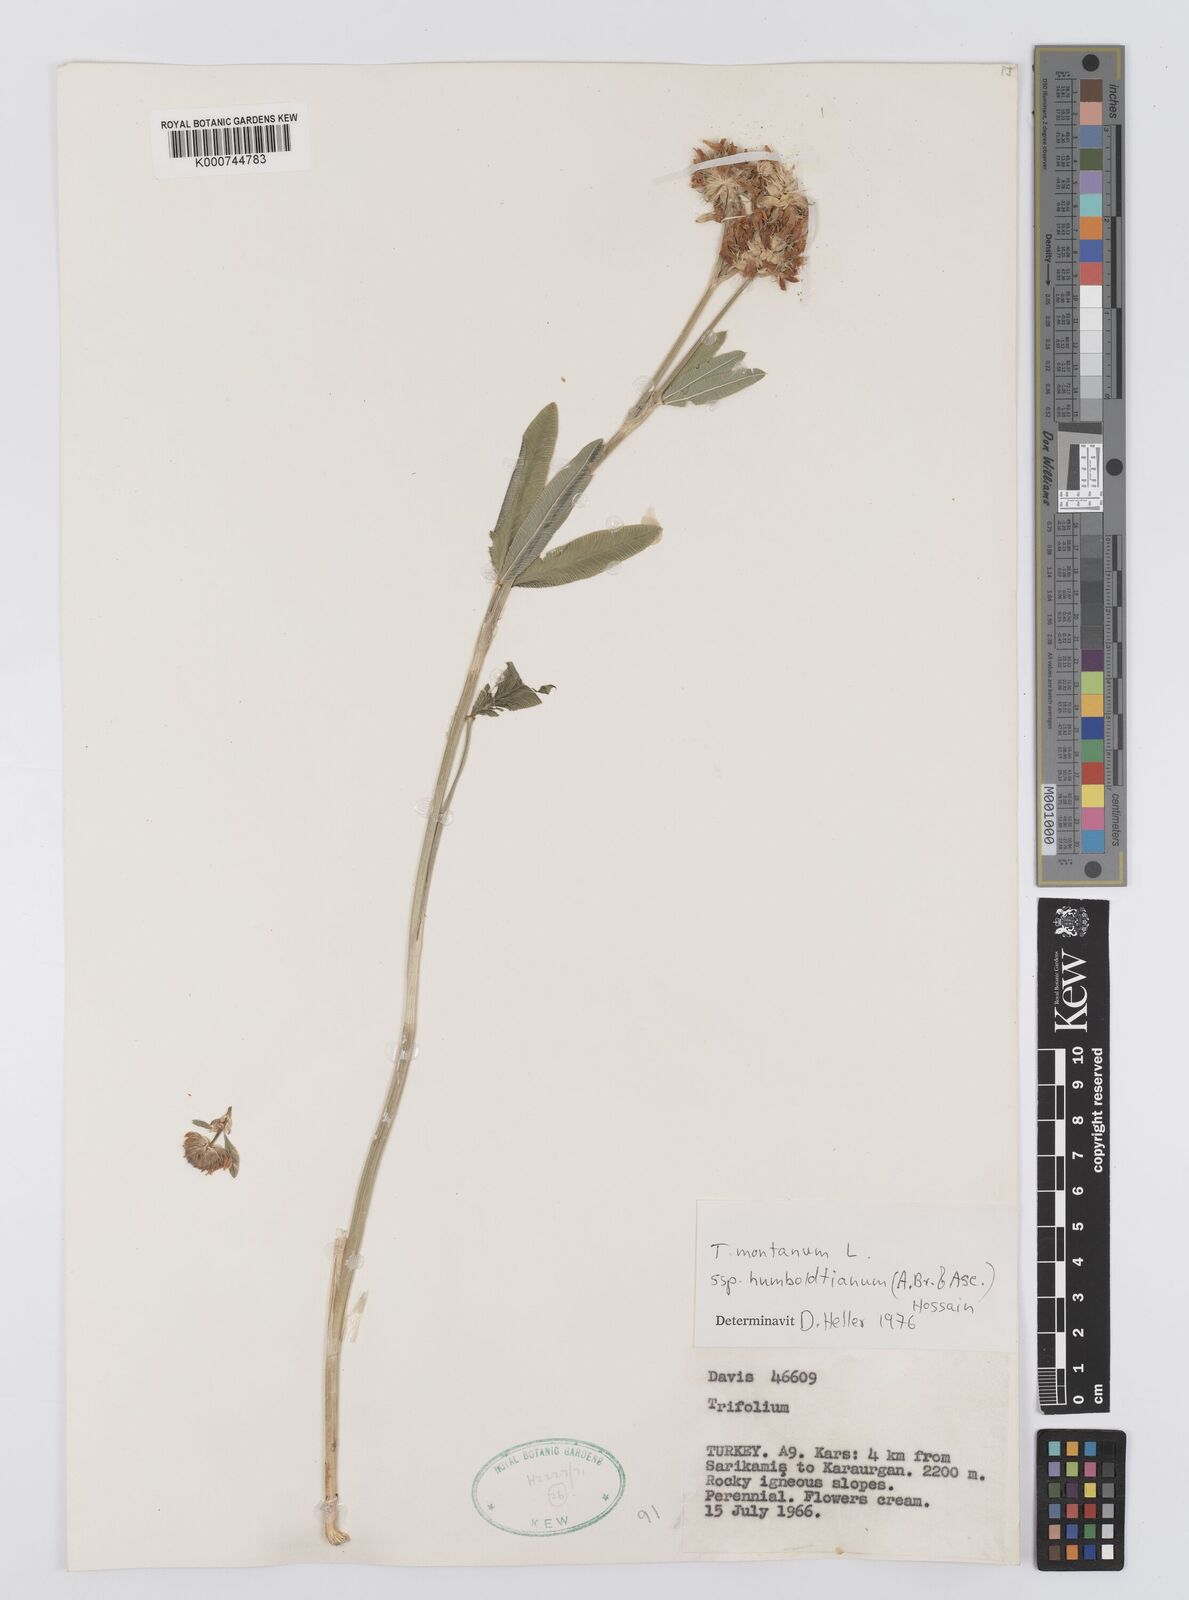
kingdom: Plantae
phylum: Tracheophyta
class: Magnoliopsida
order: Fabales
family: Fabaceae
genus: Trifolium
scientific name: Trifolium
